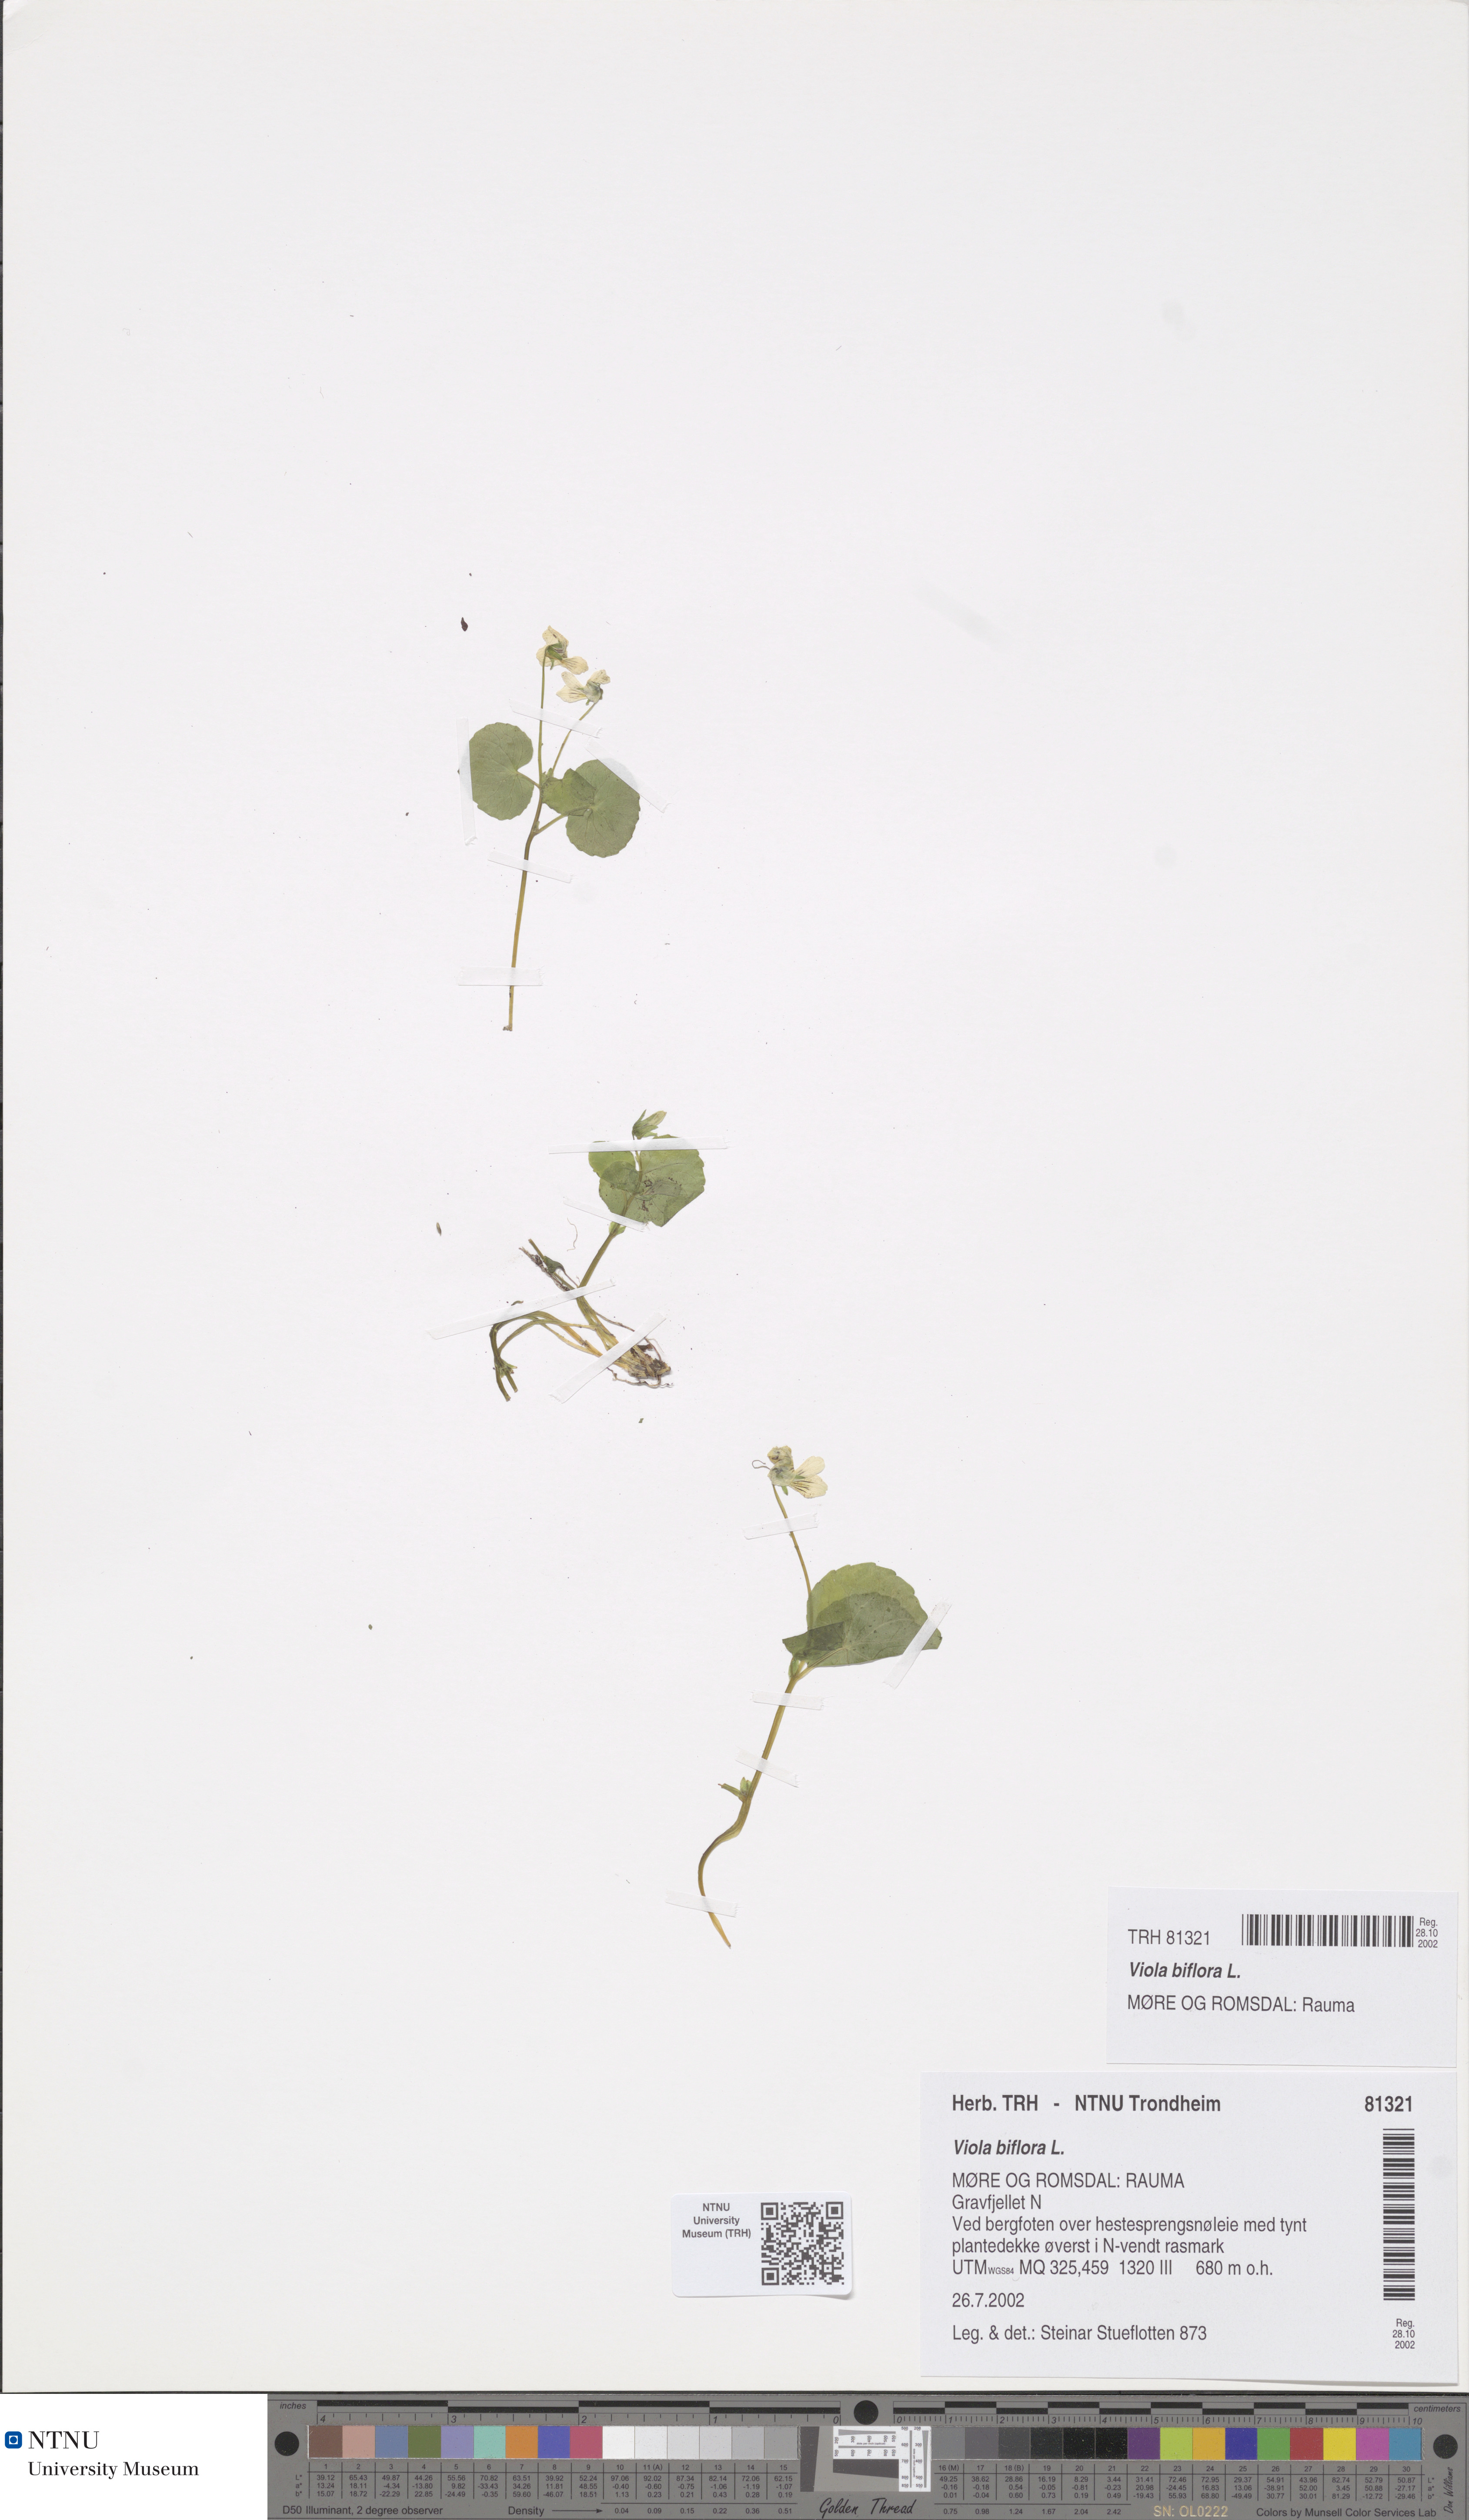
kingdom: Plantae
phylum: Tracheophyta
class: Magnoliopsida
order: Malpighiales
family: Violaceae
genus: Viola
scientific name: Viola biflora
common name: Alpine yellow violet
